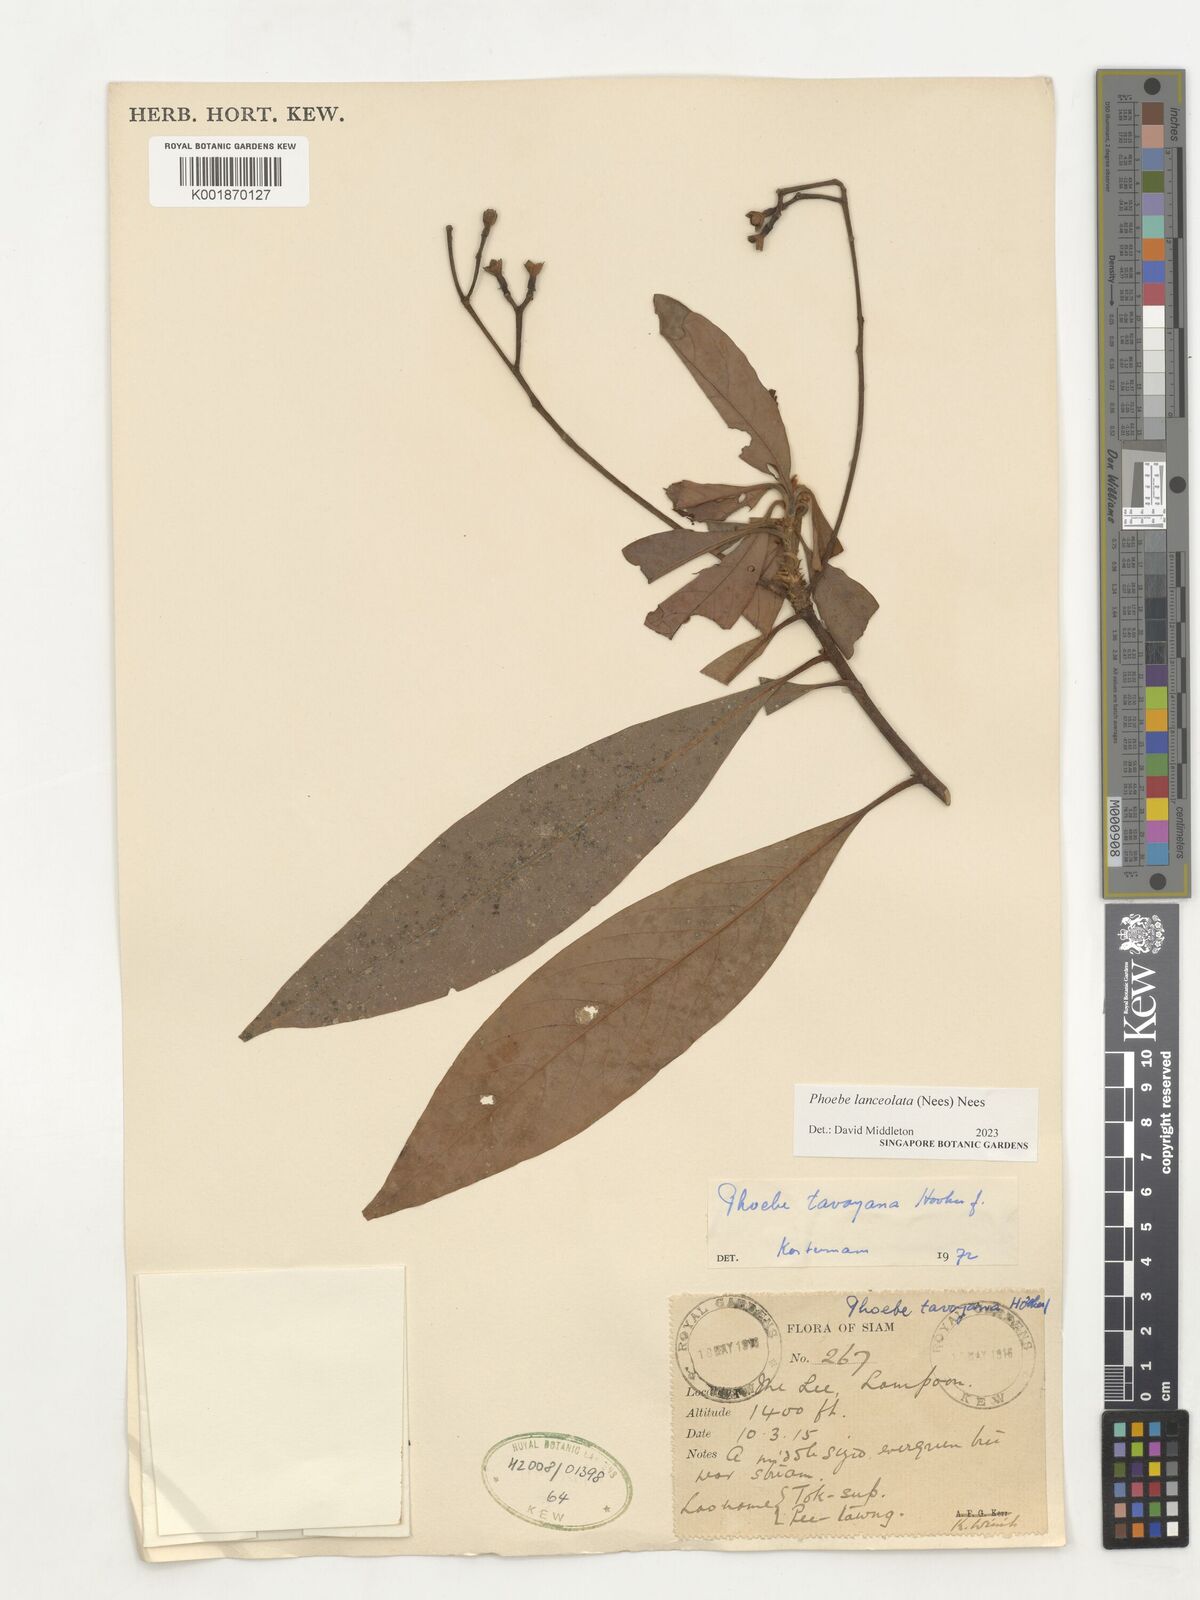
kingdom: Plantae
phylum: Tracheophyta
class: Magnoliopsida
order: Laurales
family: Lauraceae
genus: Phoebe
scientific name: Phoebe lanceolata
